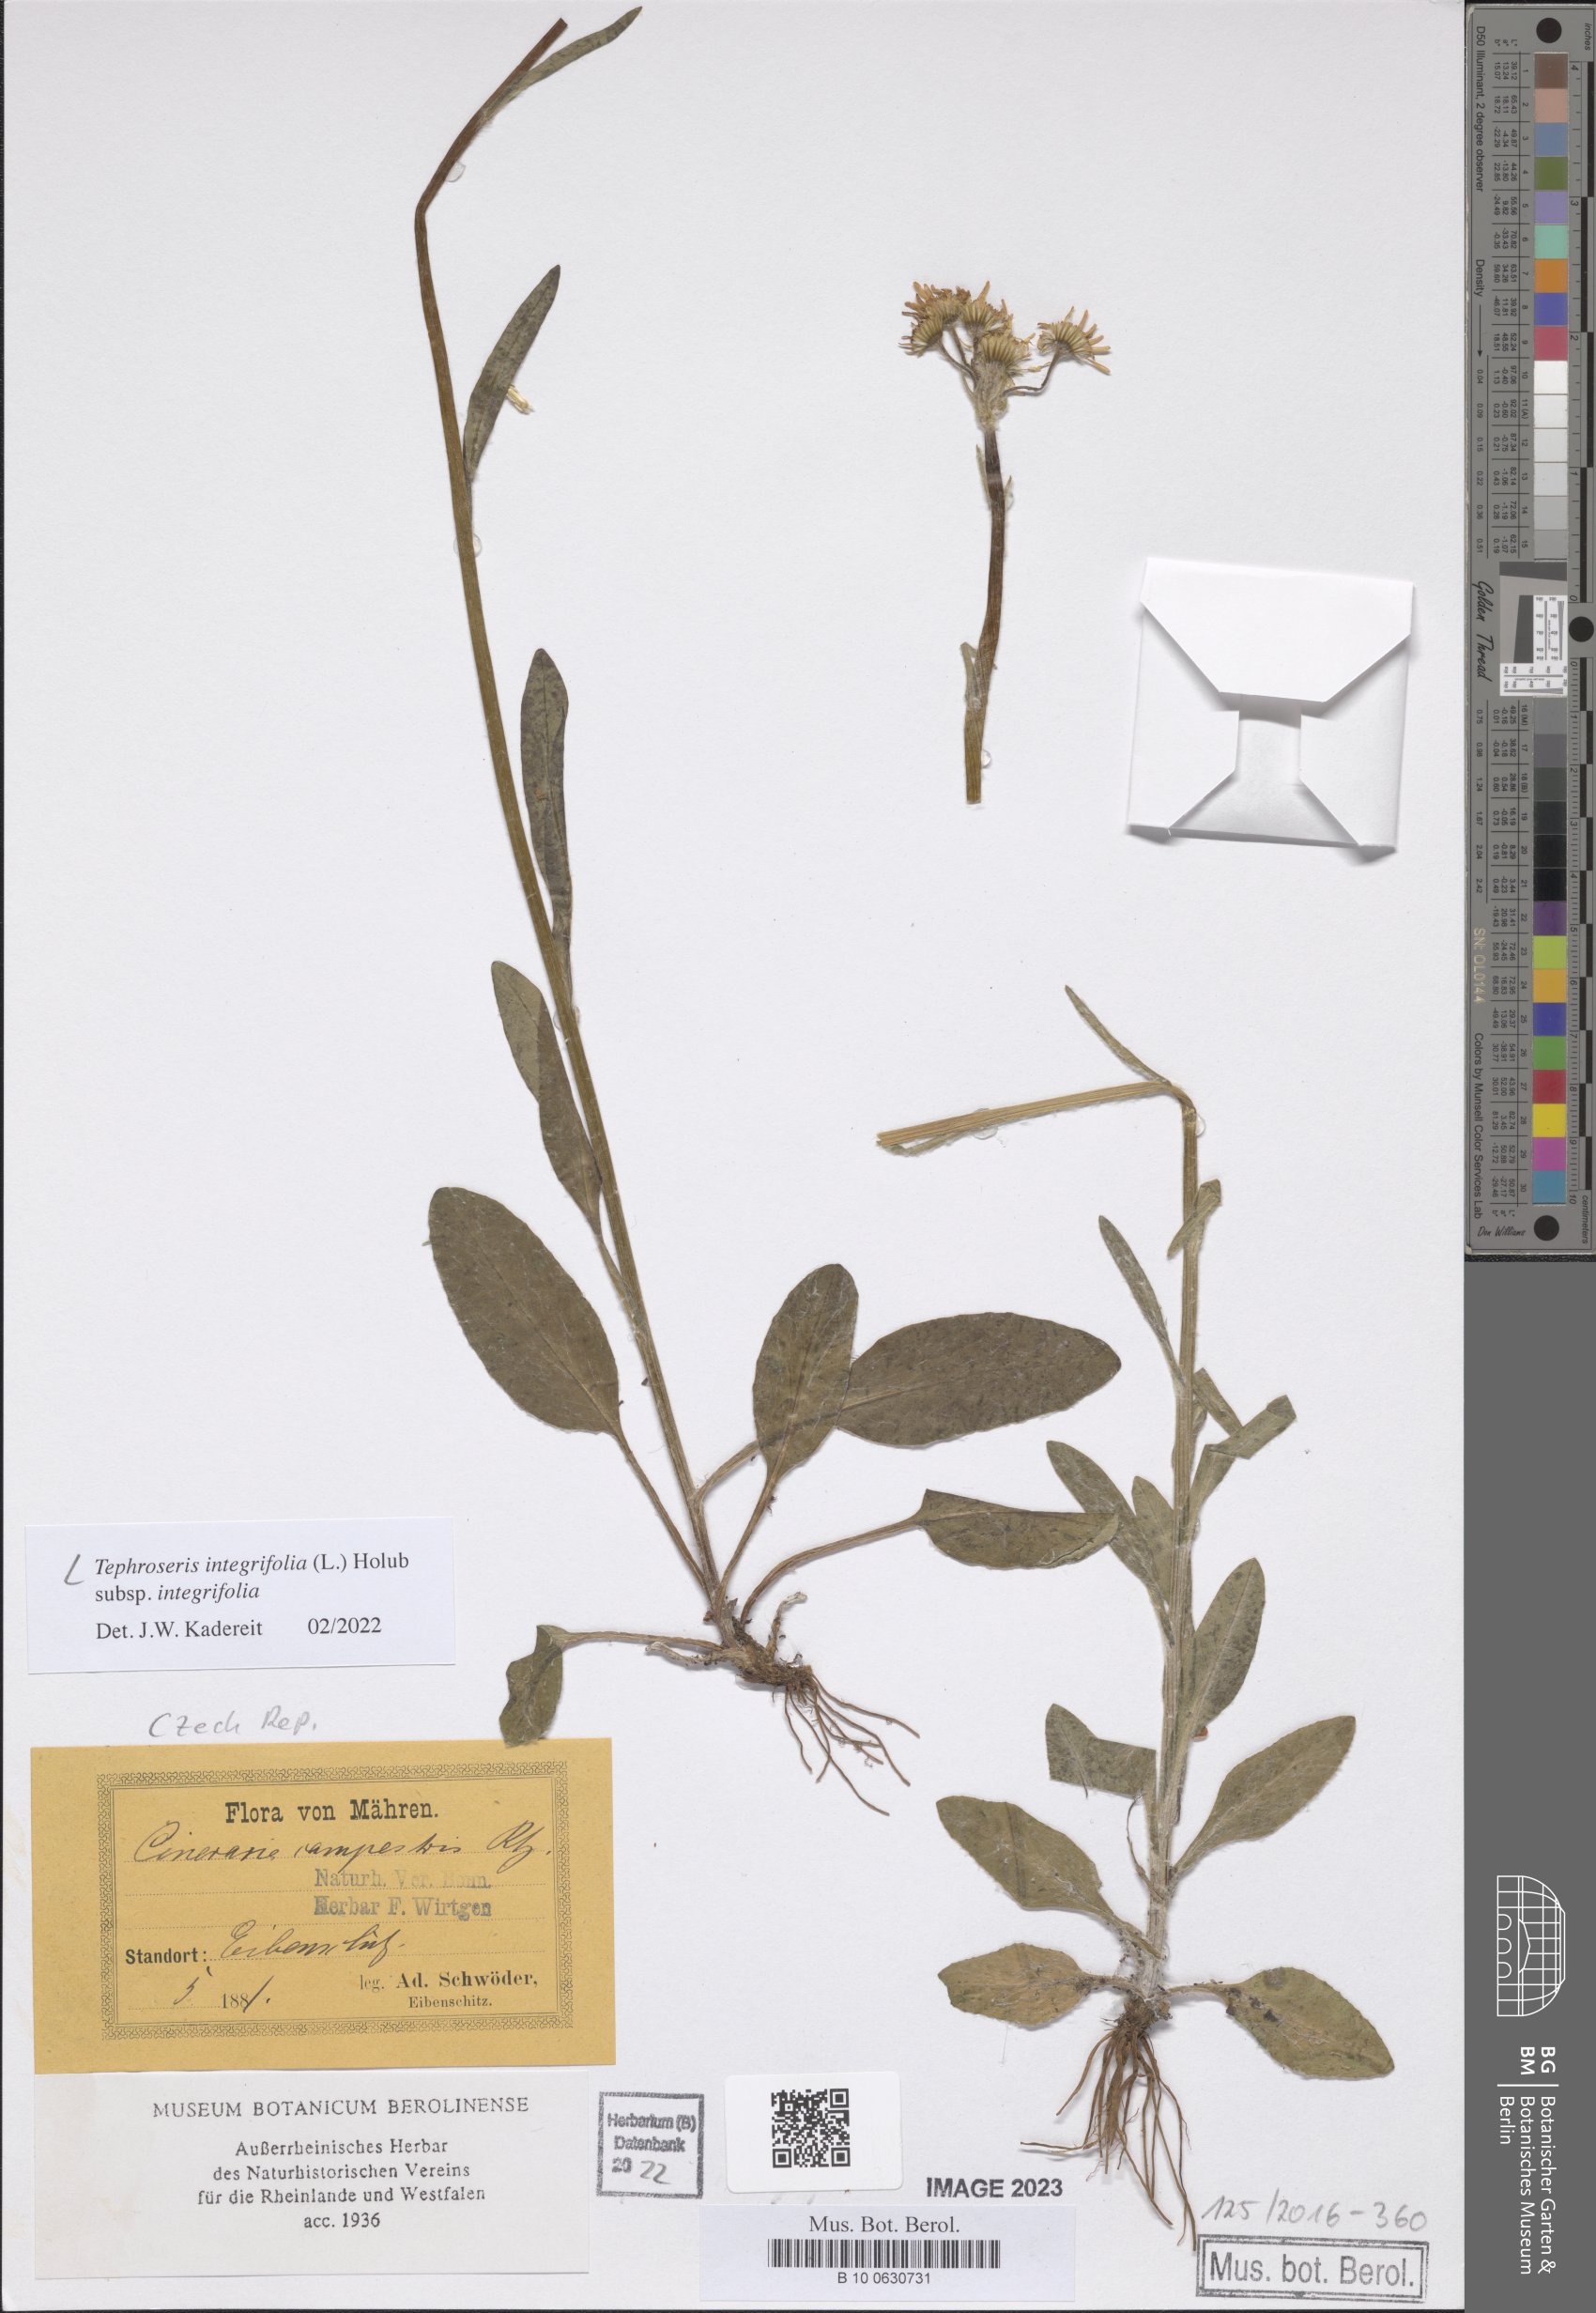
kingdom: Plantae
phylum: Tracheophyta
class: Magnoliopsida
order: Asterales
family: Asteraceae
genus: Tephroseris
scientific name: Tephroseris integrifolia
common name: Field fleawort
